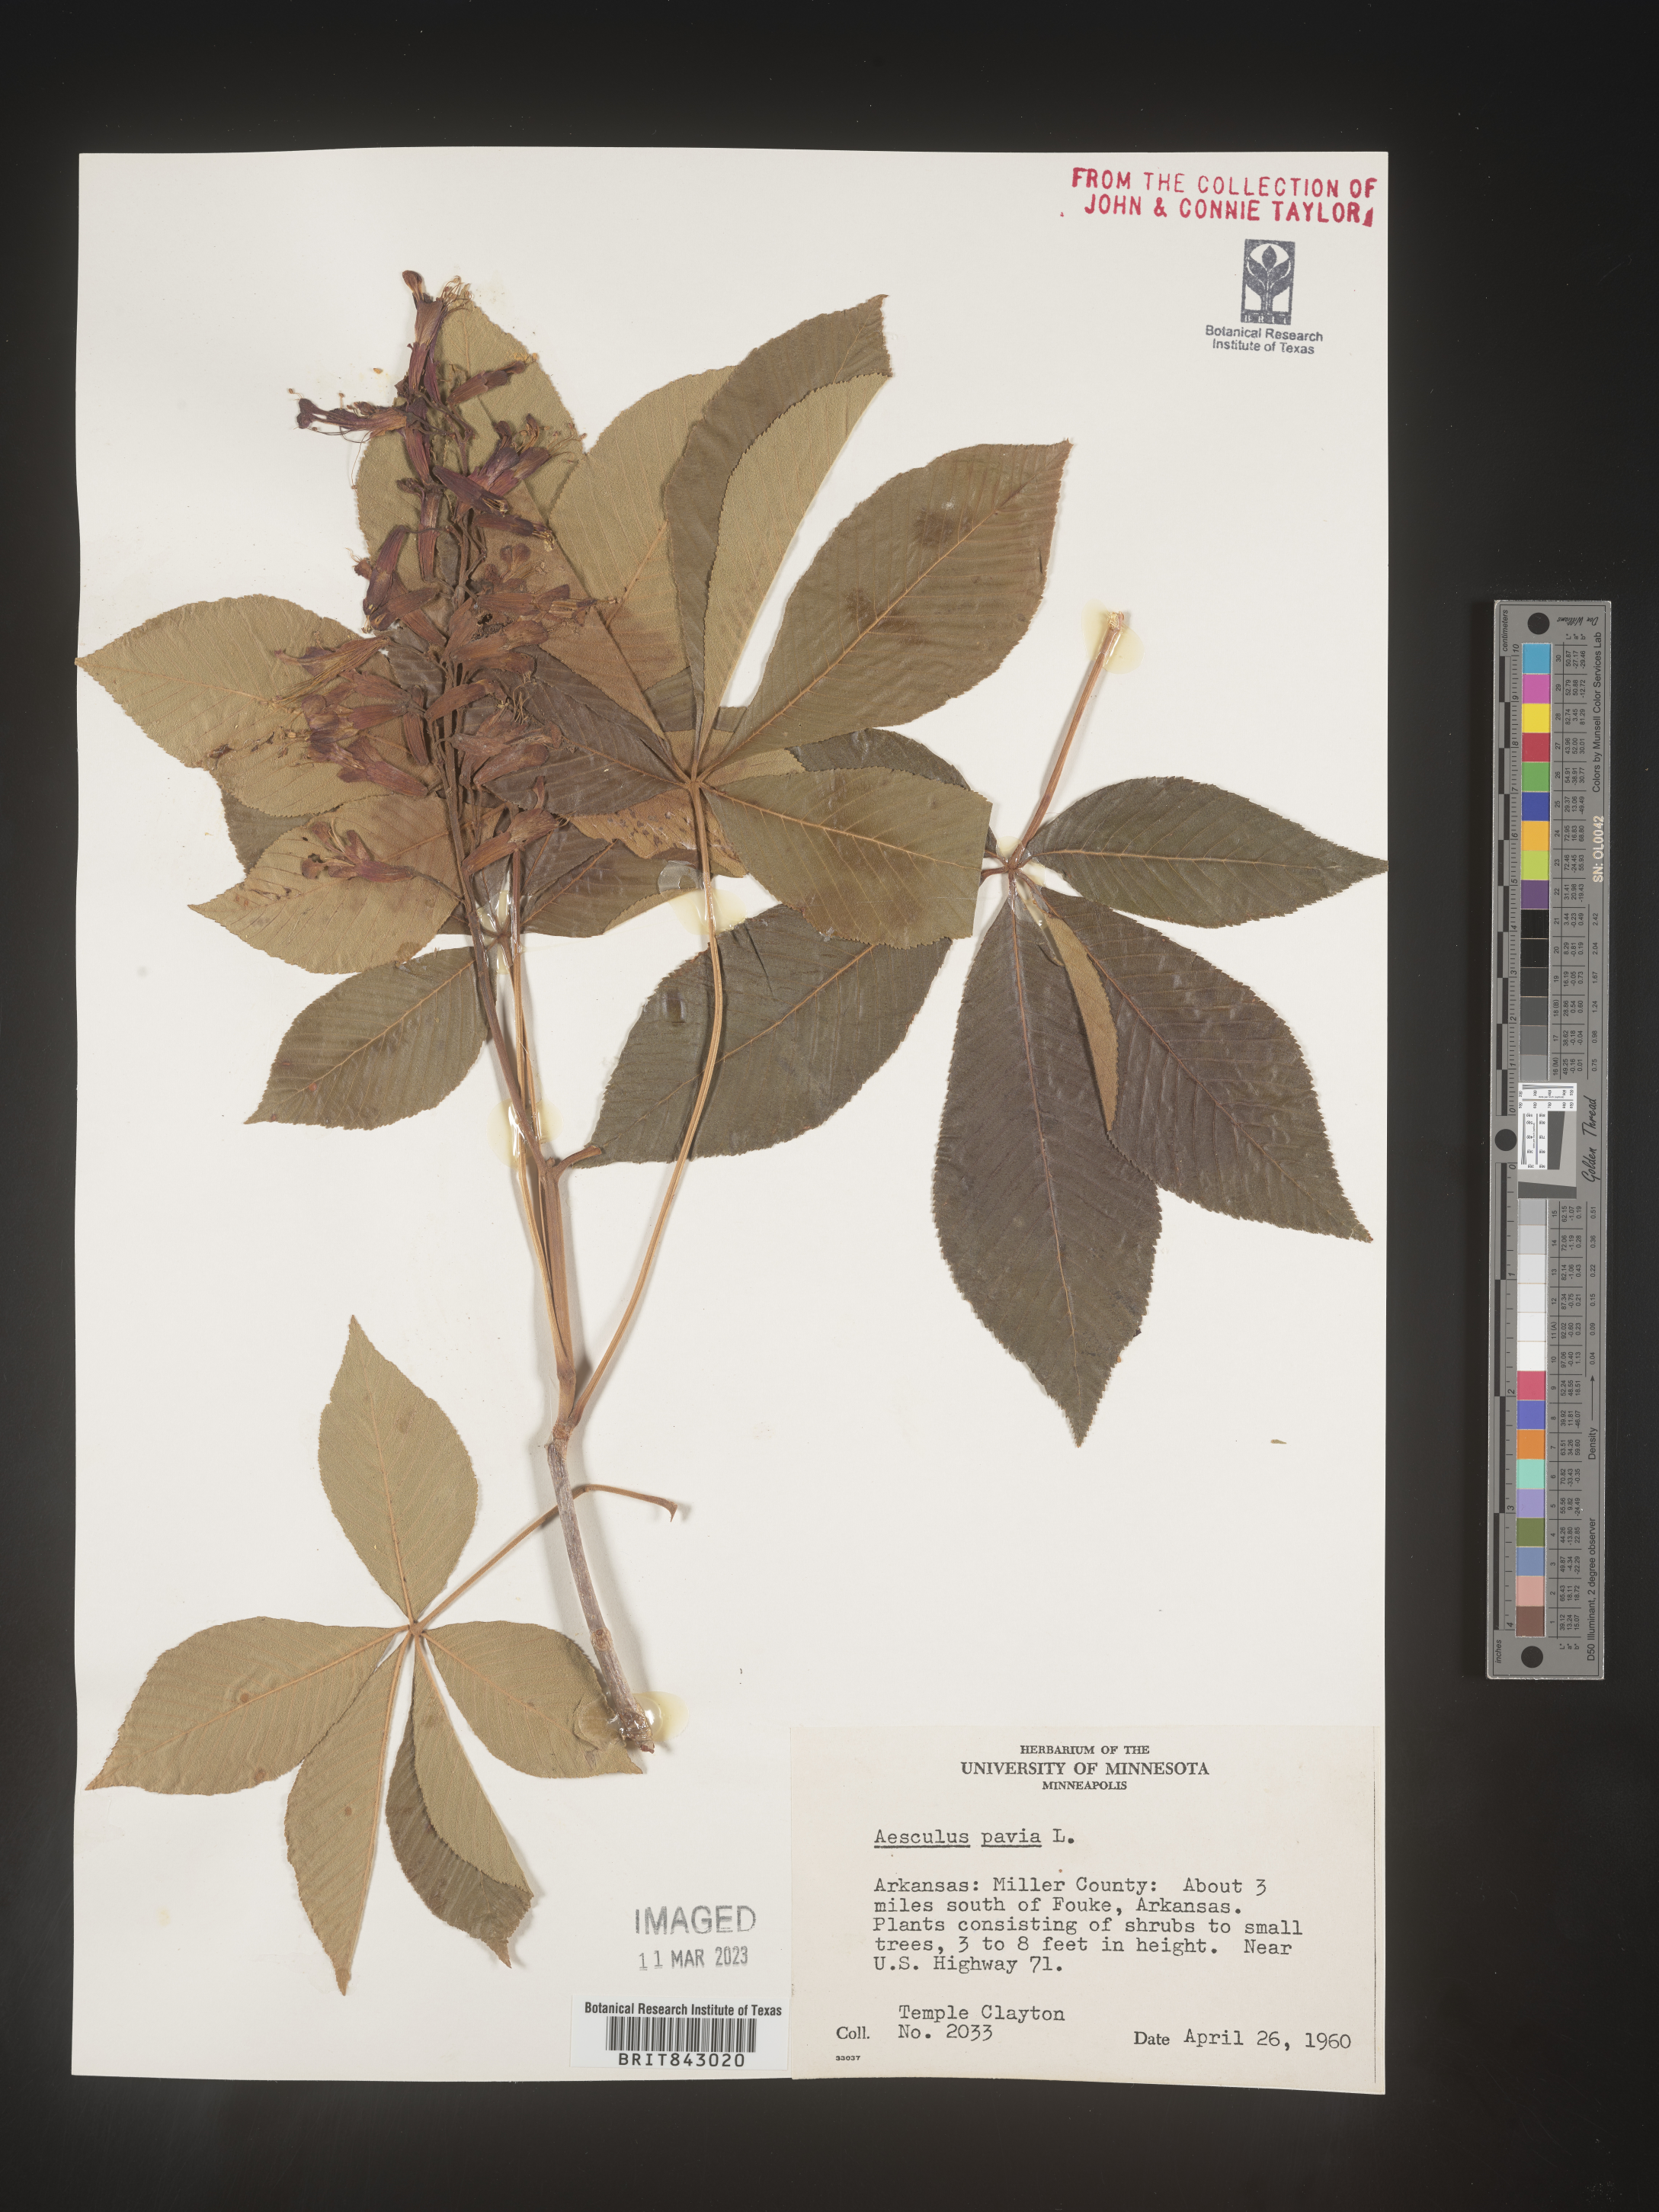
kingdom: Plantae
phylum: Tracheophyta
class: Magnoliopsida
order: Sapindales
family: Sapindaceae
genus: Aesculus
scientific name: Aesculus pavia
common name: Red buckeye
